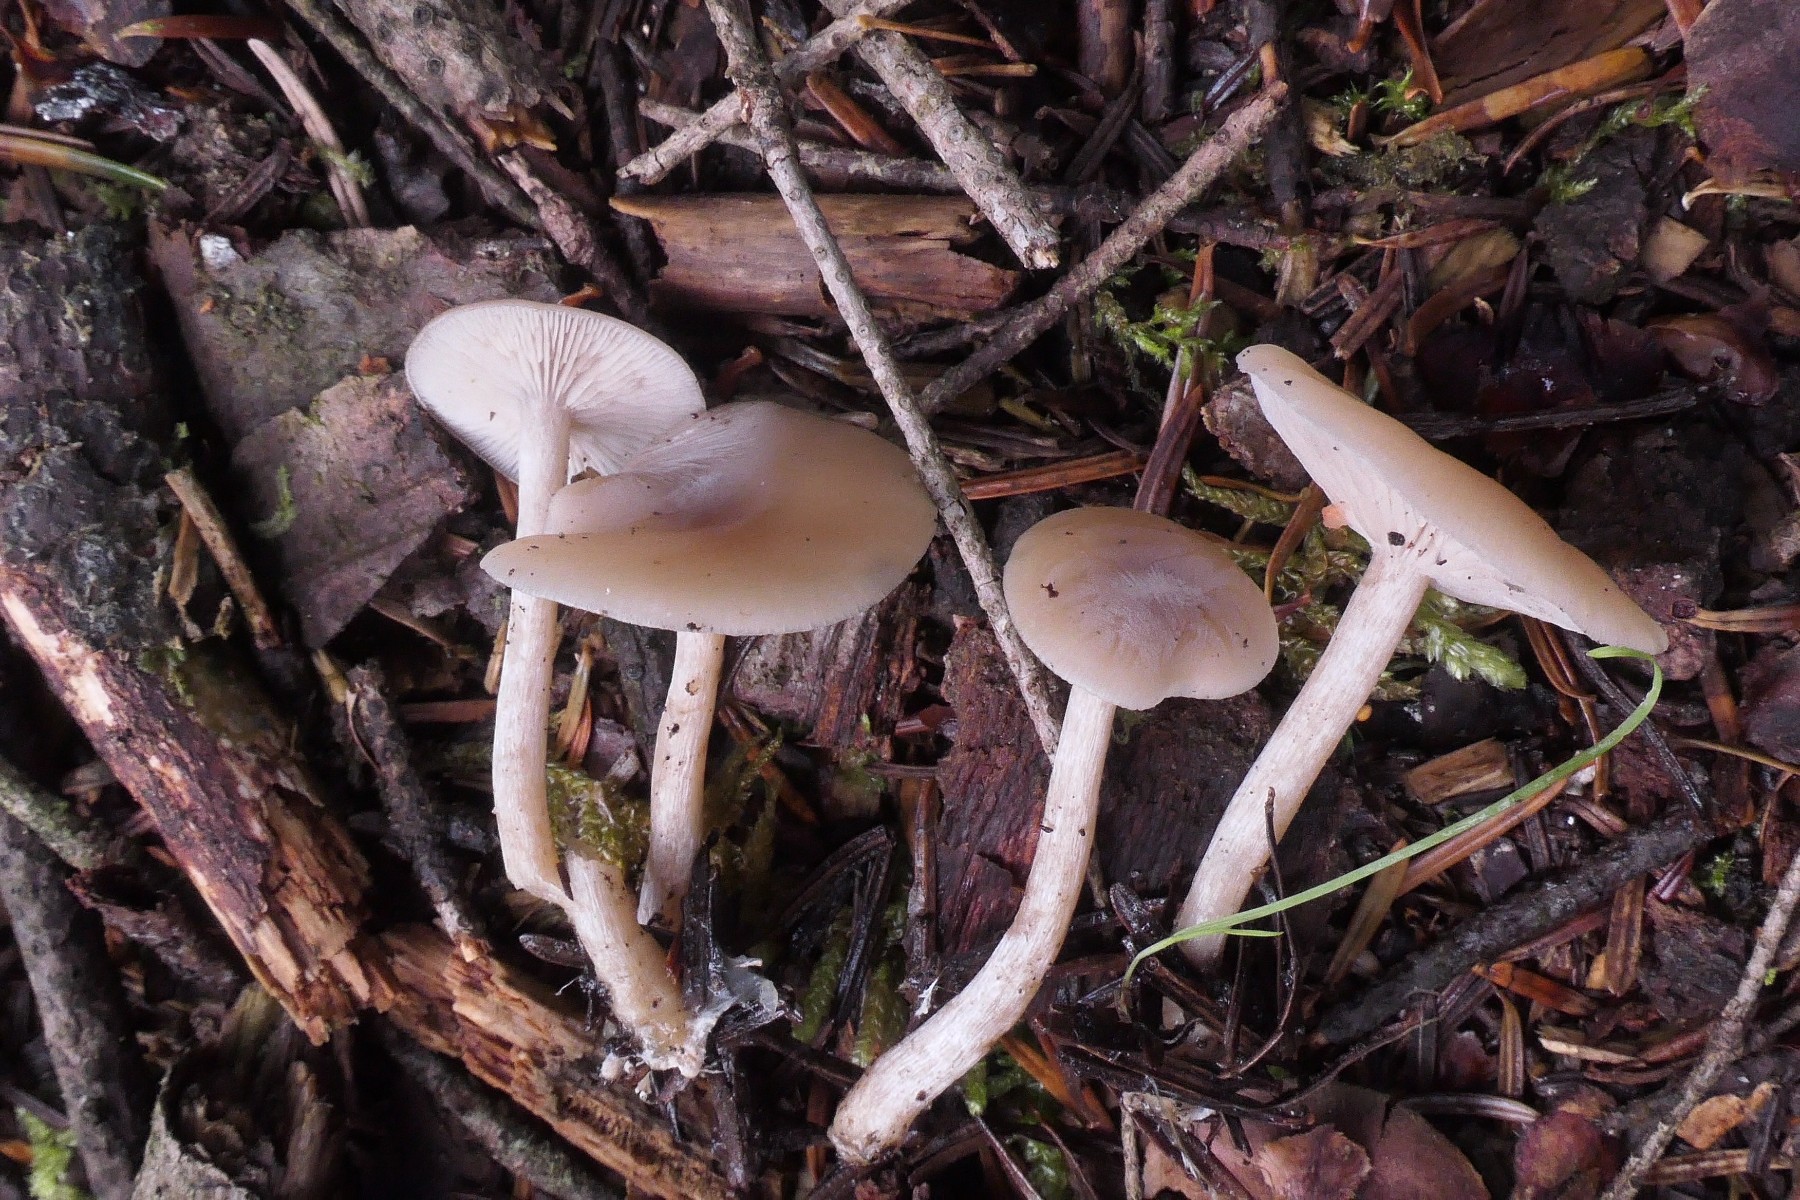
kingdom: Fungi
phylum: Basidiomycota
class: Agaricomycetes
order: Agaricales
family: Tricholomataceae
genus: Clitocybe
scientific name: Clitocybe fragrans
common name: vellugtende tragthat
